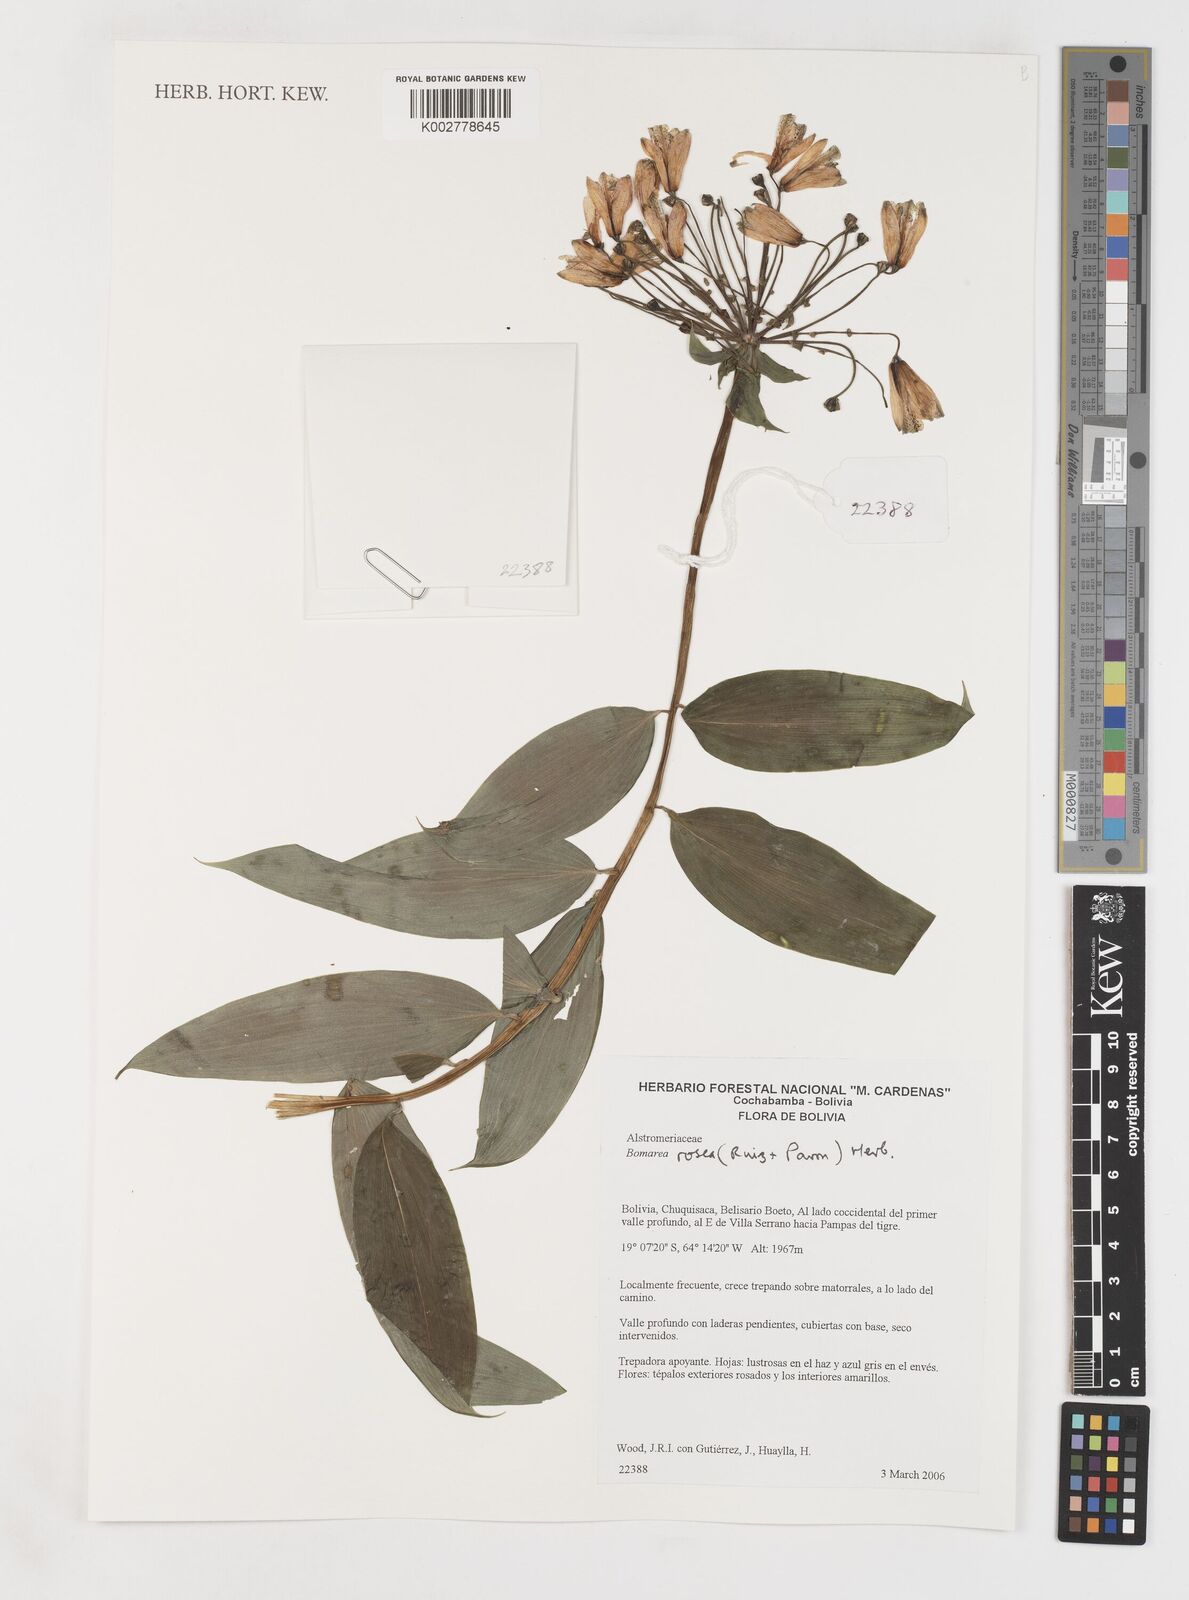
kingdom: Plantae
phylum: Tracheophyta
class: Liliopsida
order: Liliales
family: Alstroemeriaceae
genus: Bomarea
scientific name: Bomarea rosea
